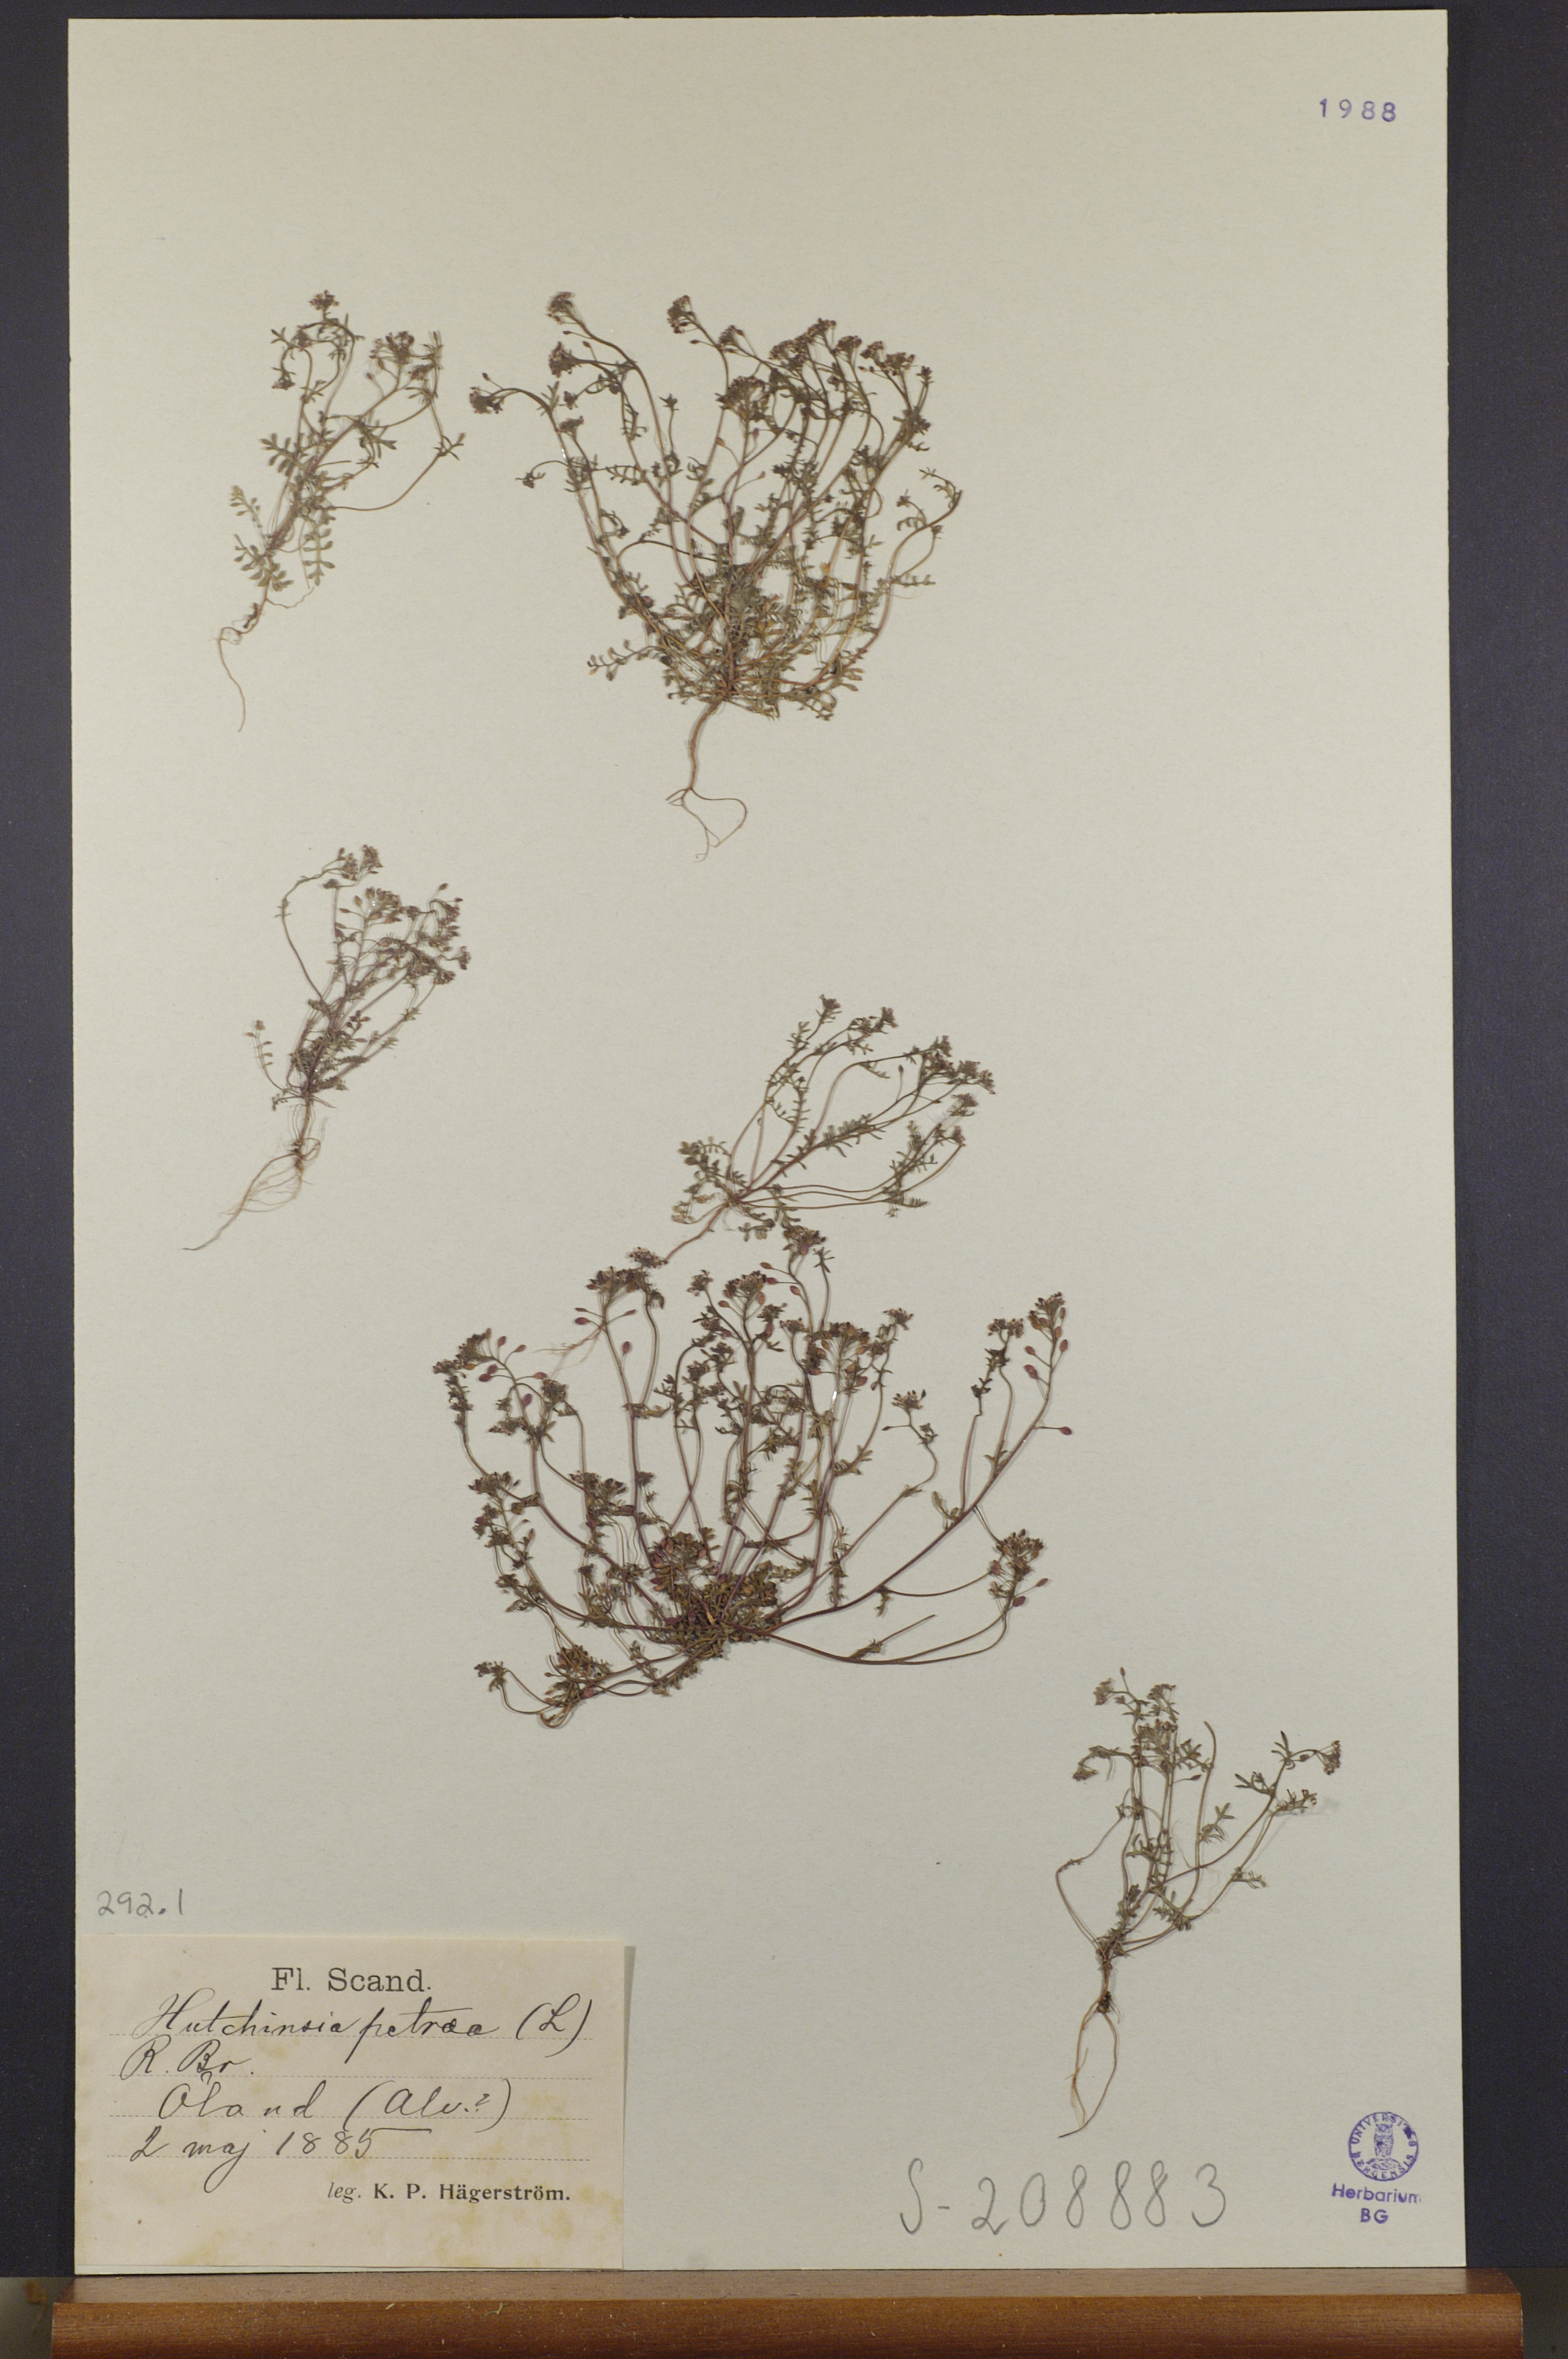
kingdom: Plantae
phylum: Tracheophyta
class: Magnoliopsida
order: Brassicales
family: Brassicaceae
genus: Hornungia
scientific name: Hornungia petraea
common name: Hutchinsia
